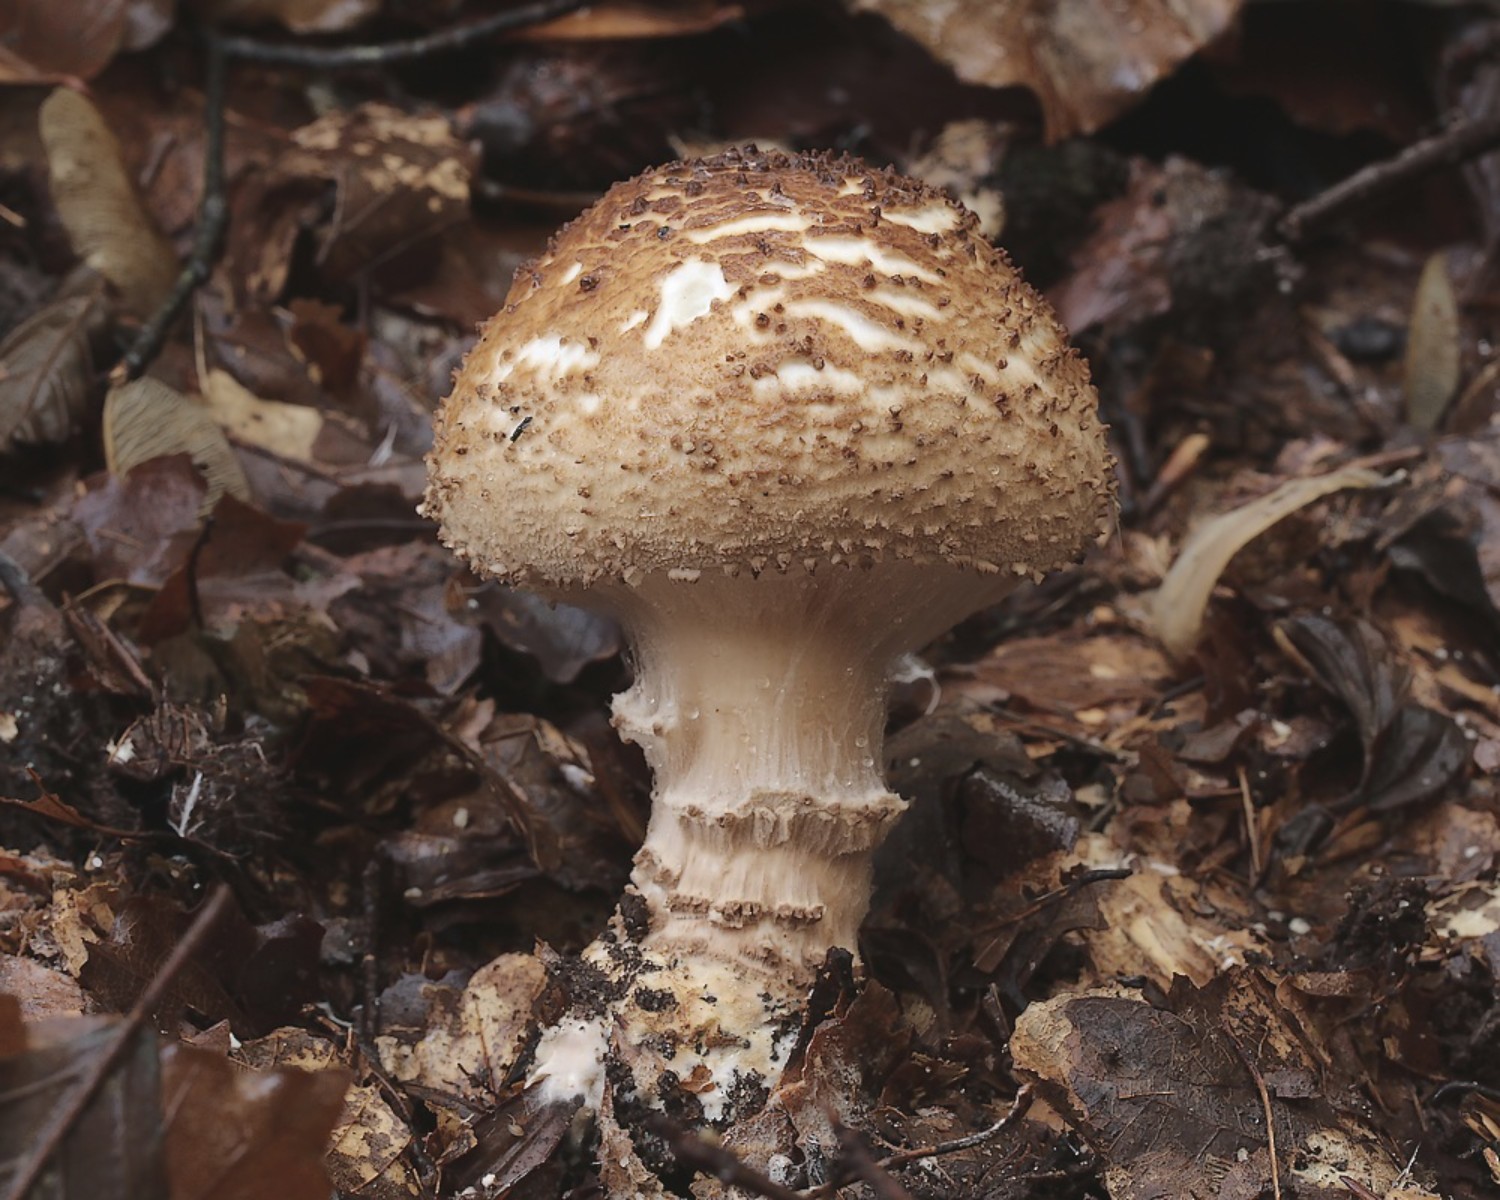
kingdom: Fungi
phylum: Basidiomycota
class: Agaricomycetes
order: Agaricales
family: Agaricaceae
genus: Echinoderma
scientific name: Echinoderma asperum
